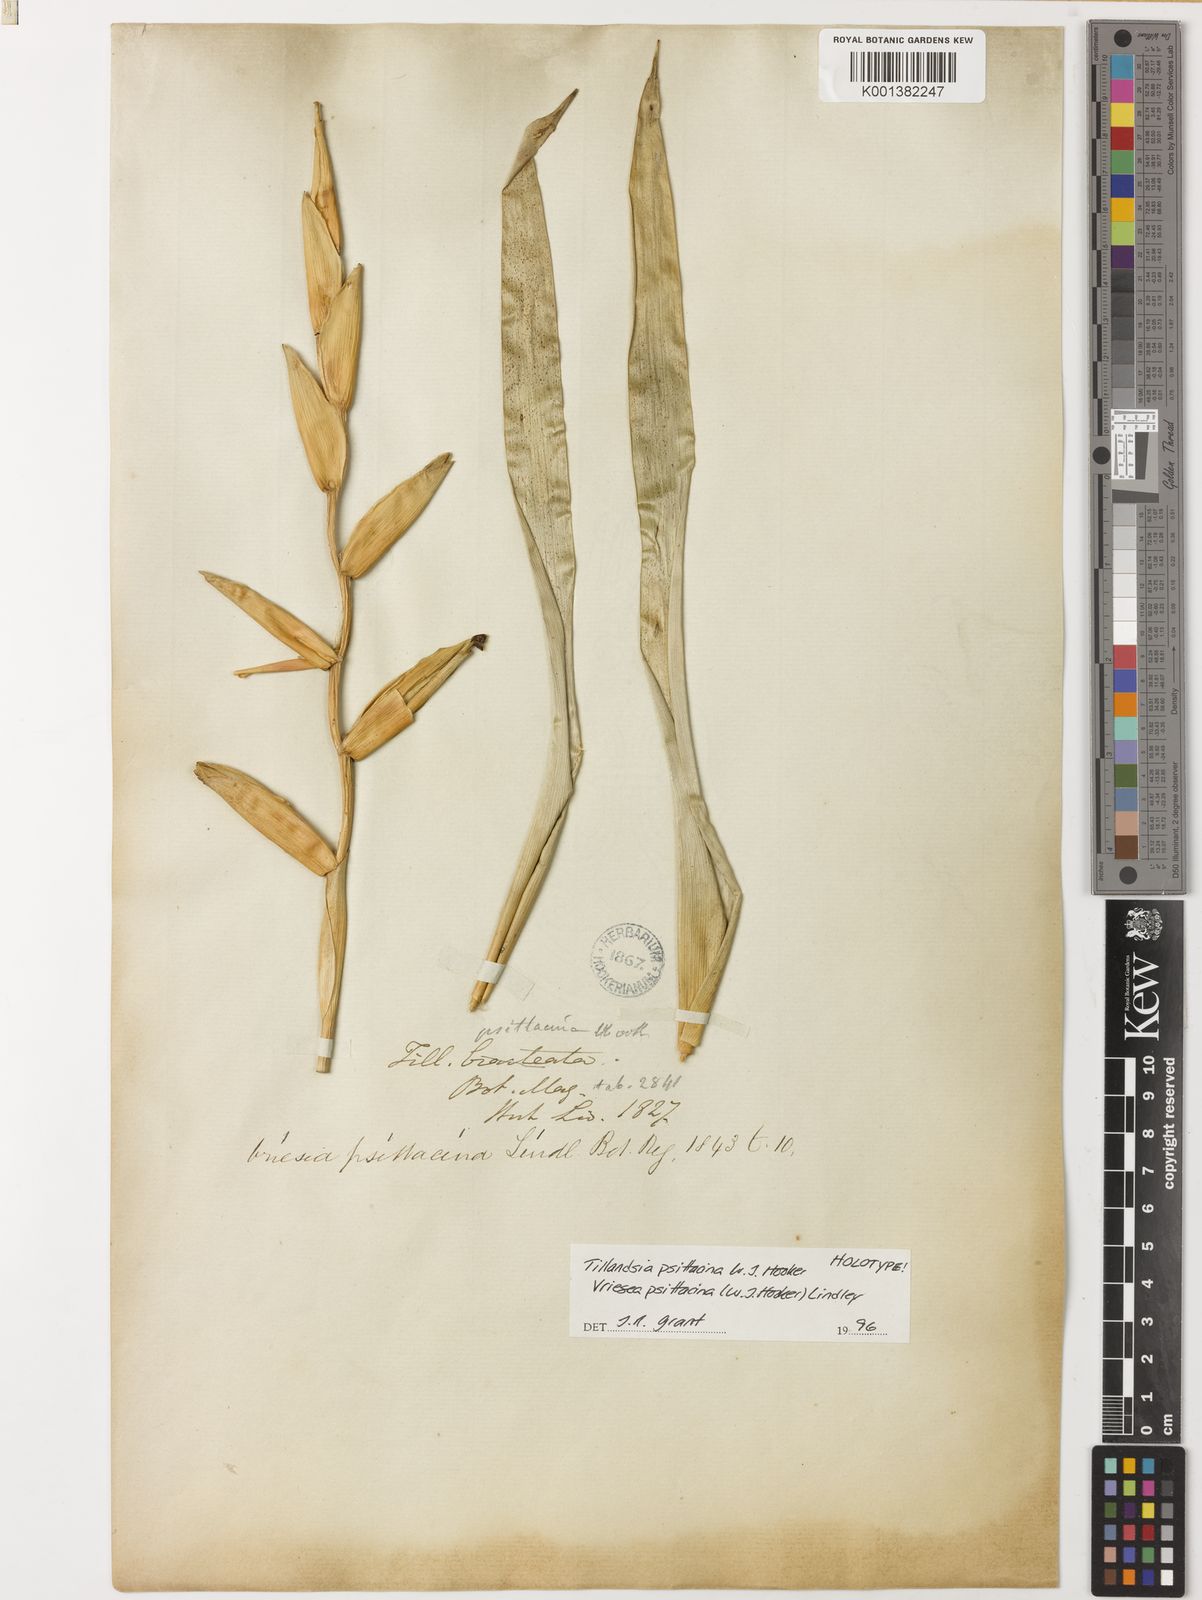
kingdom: Plantae
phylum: Tracheophyta
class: Liliopsida
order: Poales
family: Bromeliaceae
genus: Vriesea
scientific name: Vriesea psittacina
